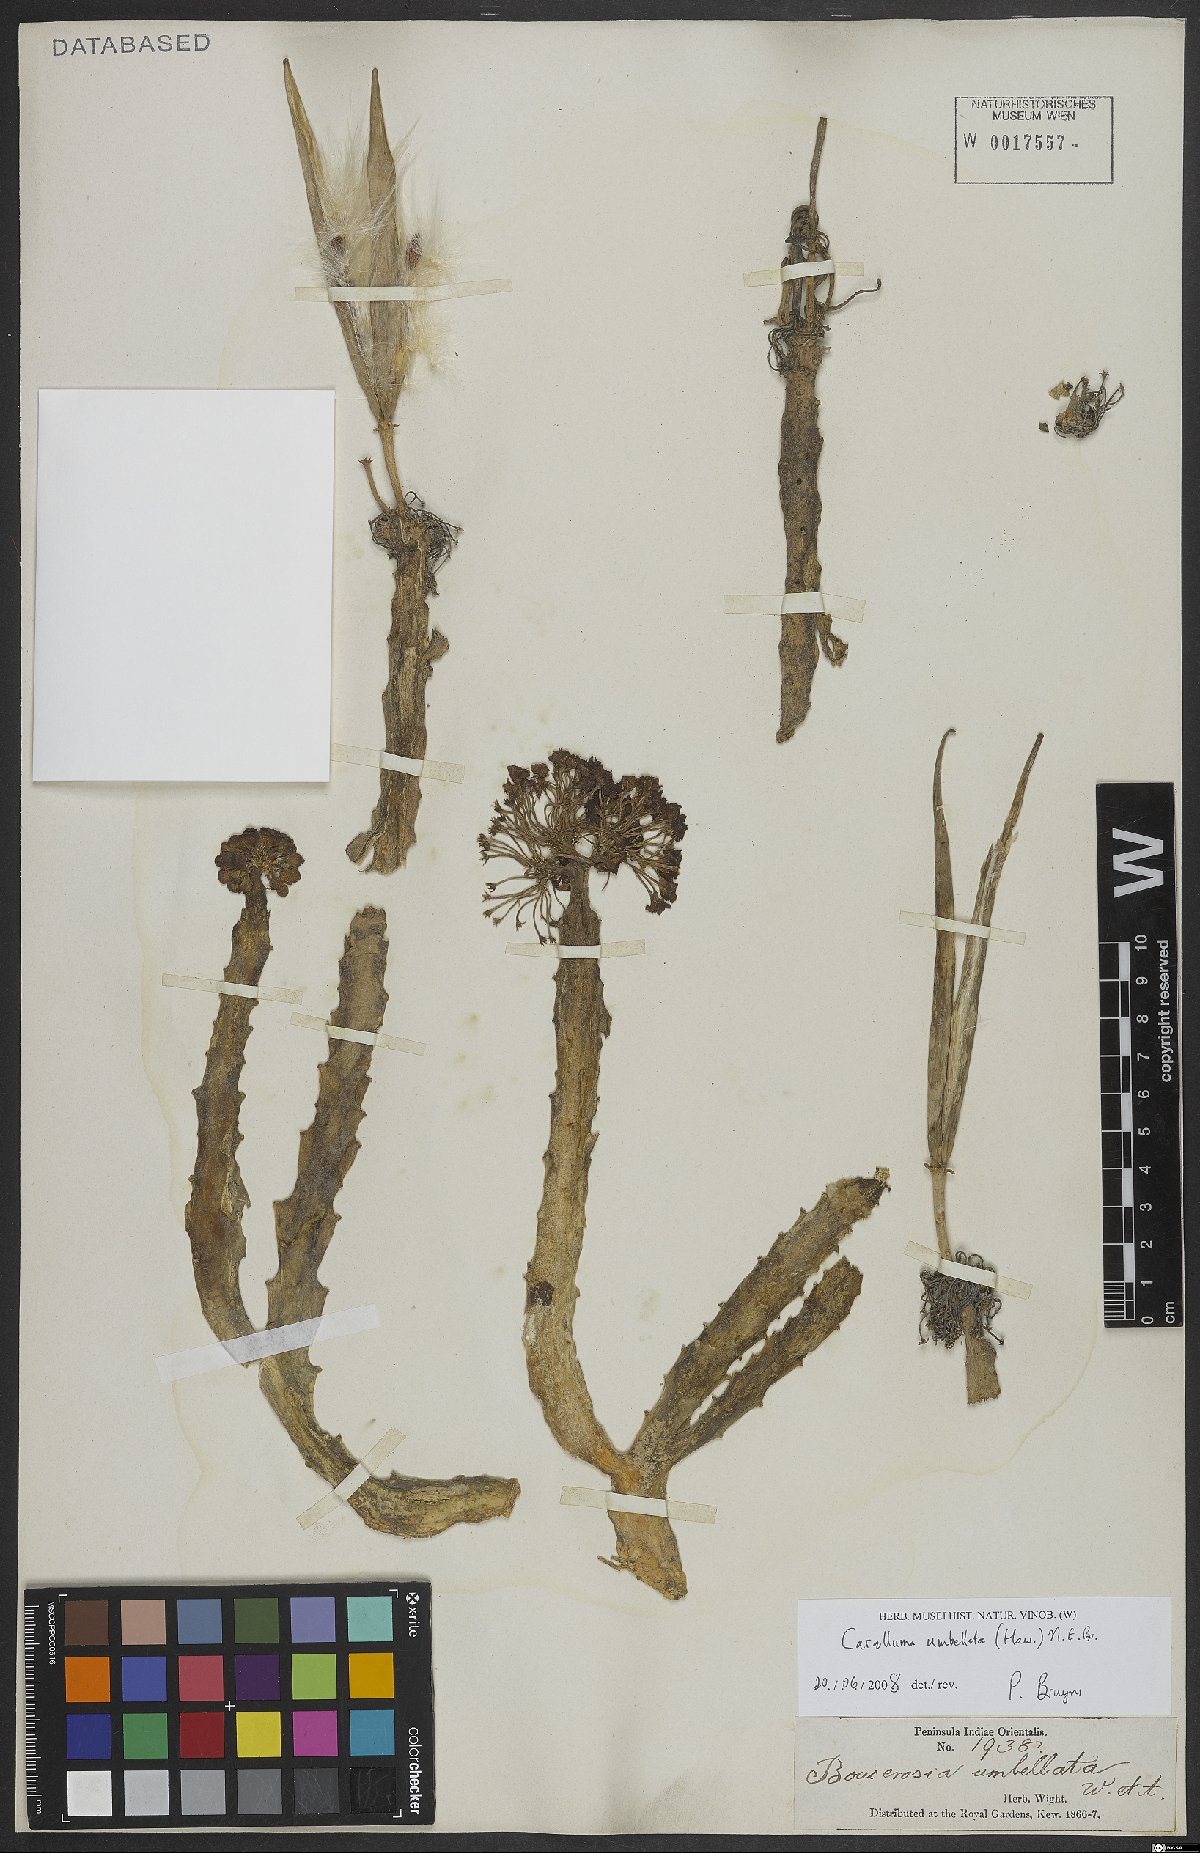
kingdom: Plantae
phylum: Tracheophyta
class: Magnoliopsida
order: Gentianales
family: Apocynaceae
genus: Ceropegia
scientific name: Ceropegia umbellata
